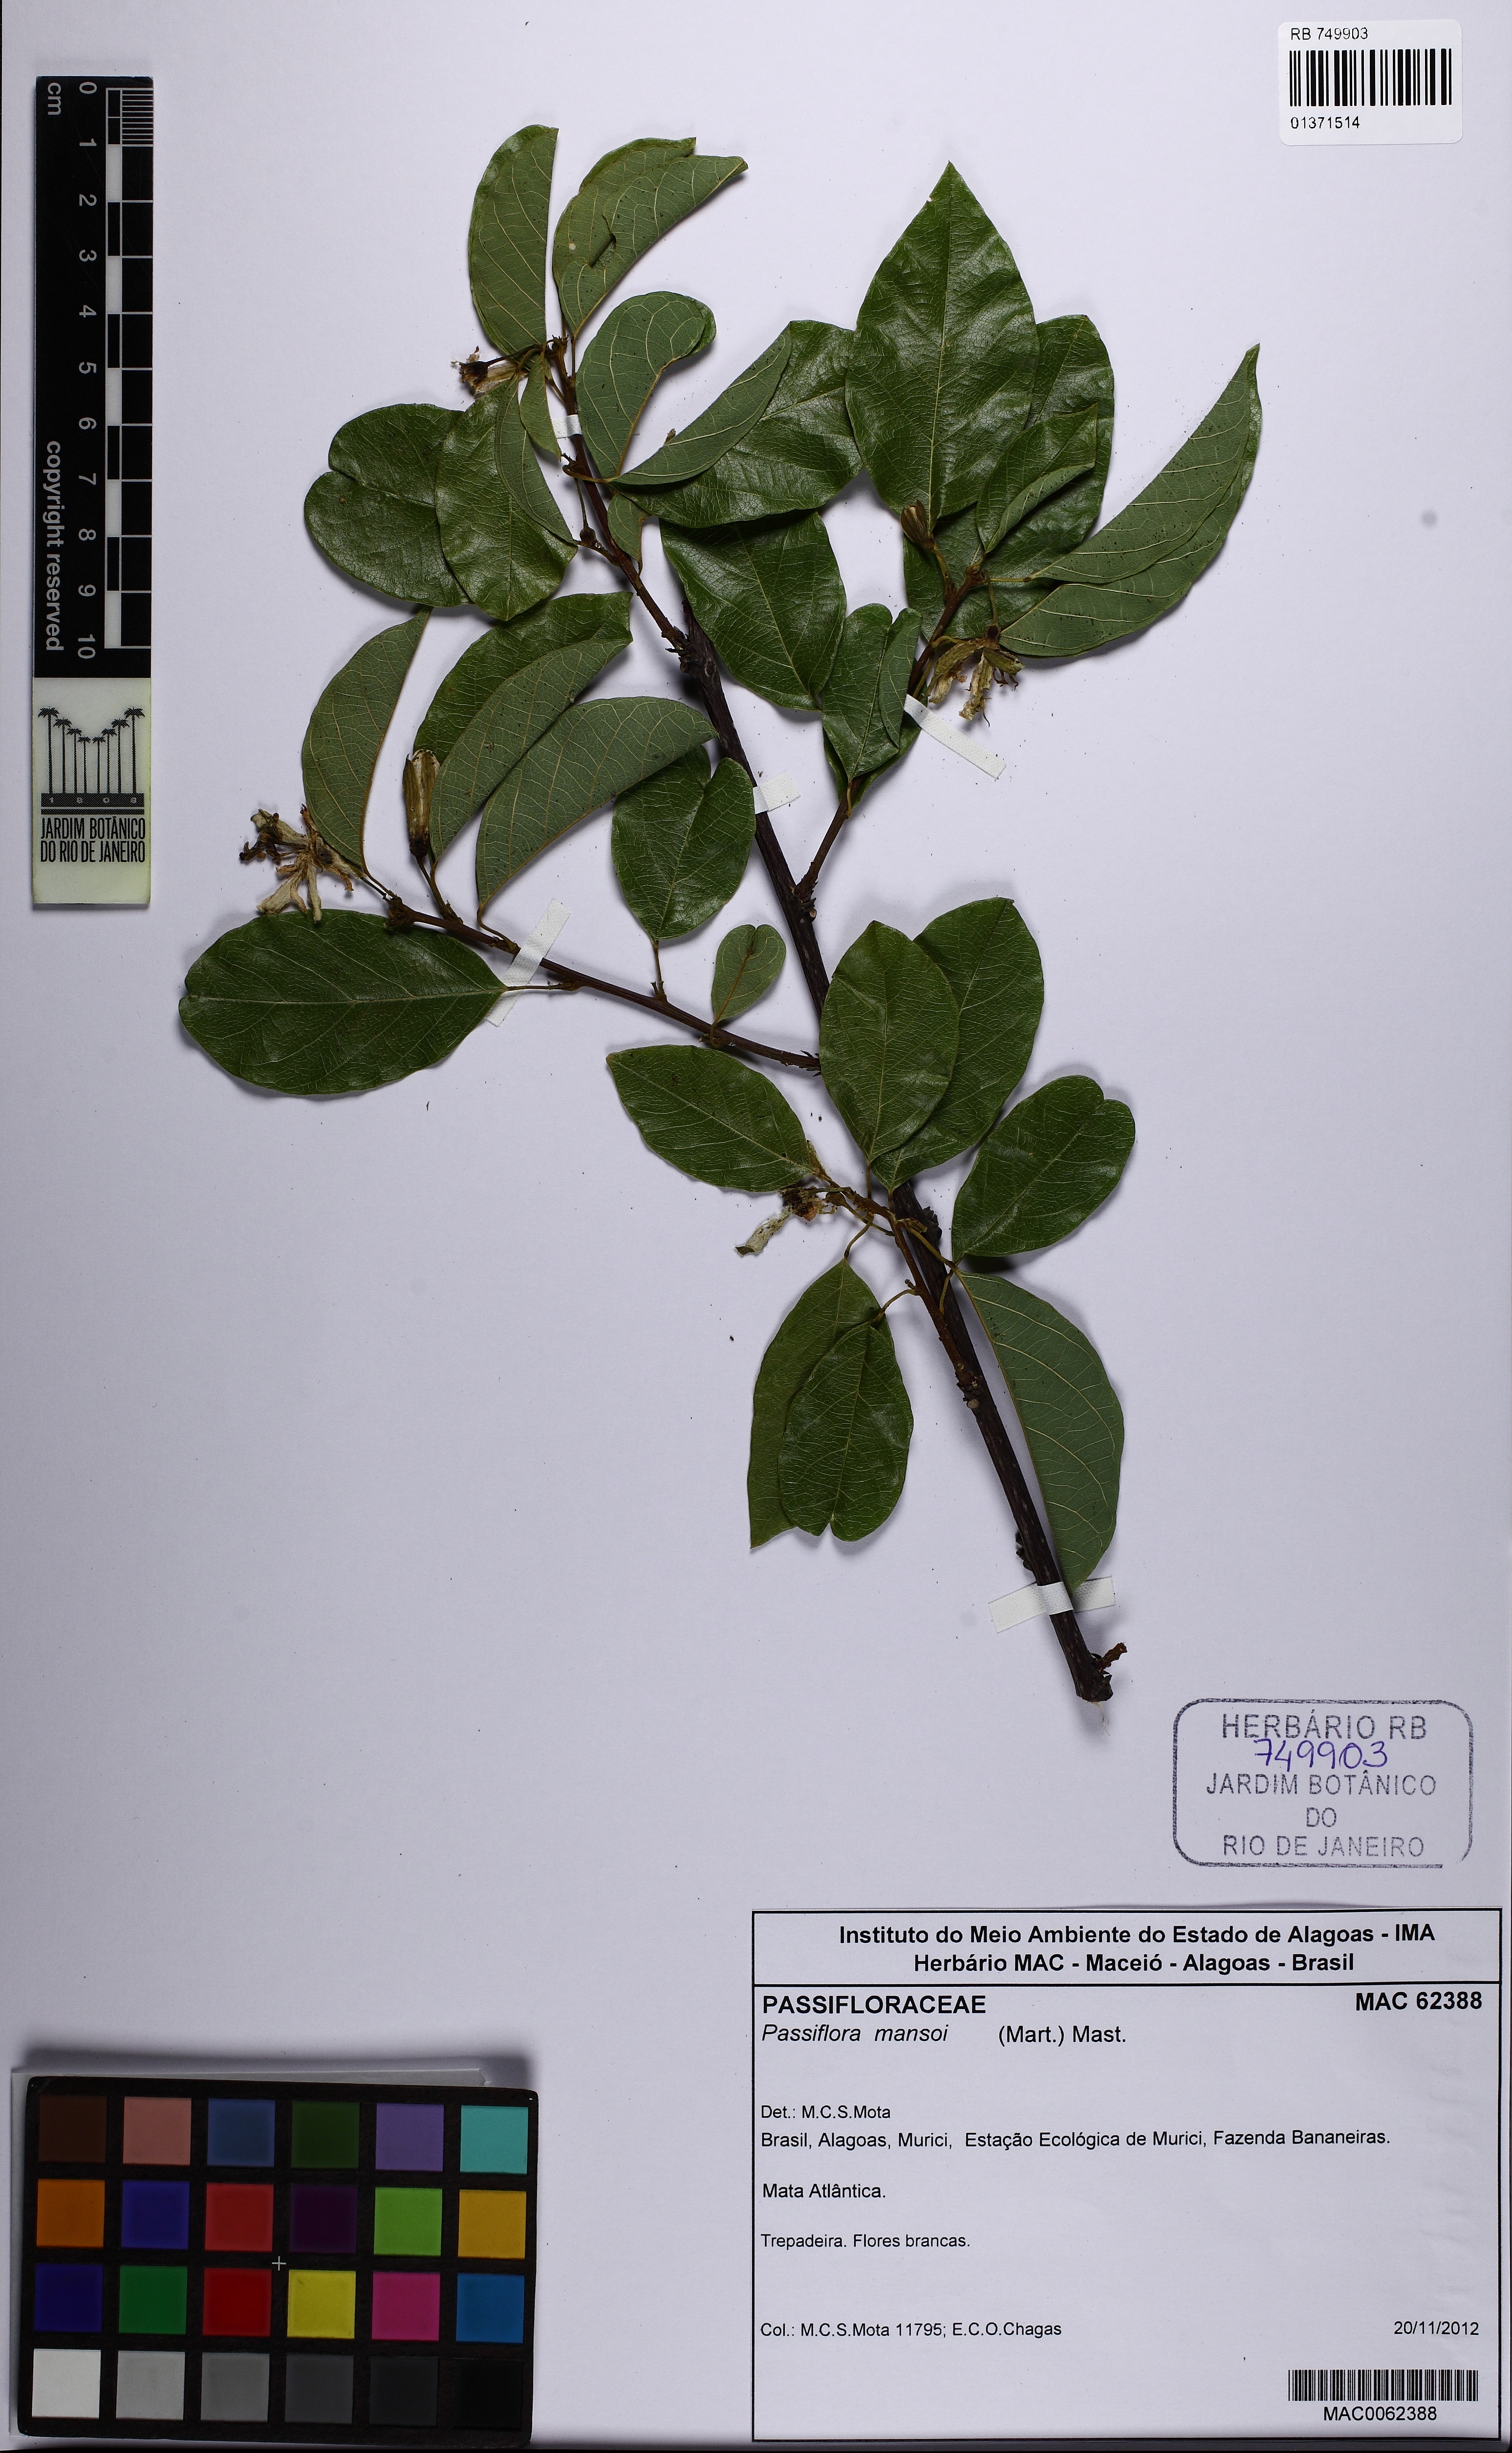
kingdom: Plantae
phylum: Tracheophyta
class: Magnoliopsida
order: Malpighiales
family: Passifloraceae
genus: Passiflora
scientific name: Passiflora mansoi
